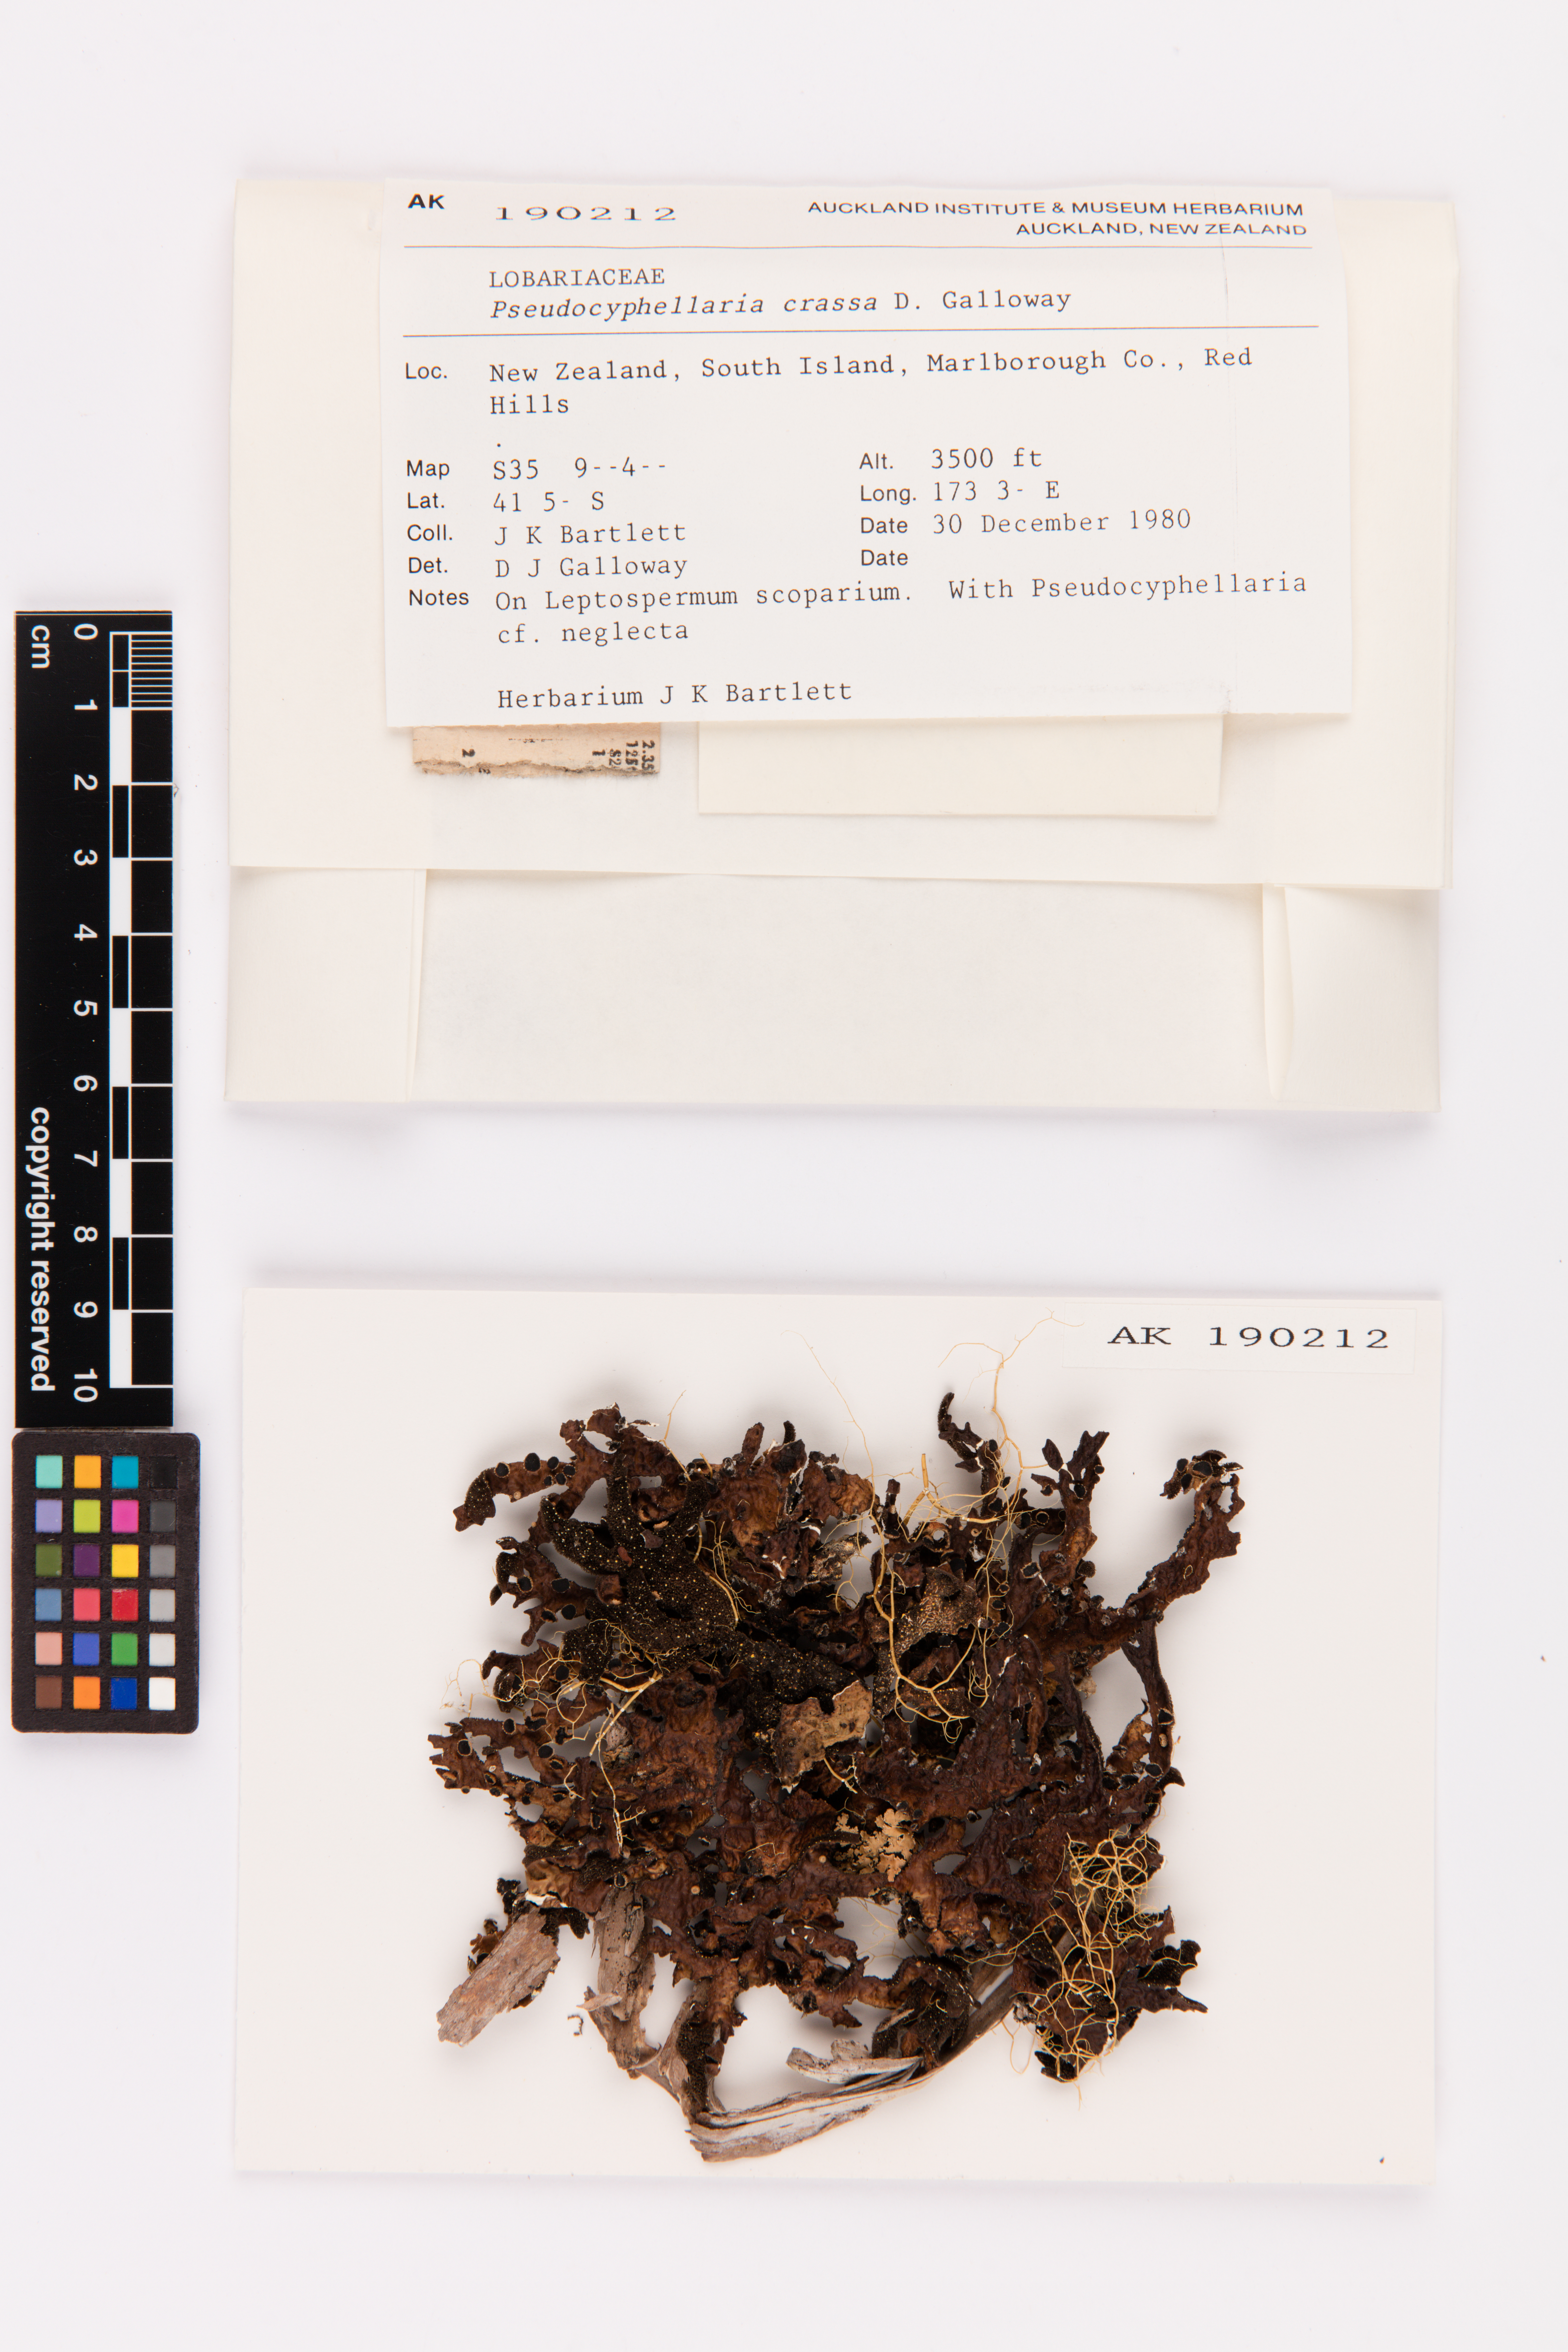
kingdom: Fungi
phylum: Ascomycota
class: Lecanoromycetes
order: Peltigerales
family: Lobariaceae
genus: Pseudocyphellaria
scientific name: Pseudocyphellaria crassa
